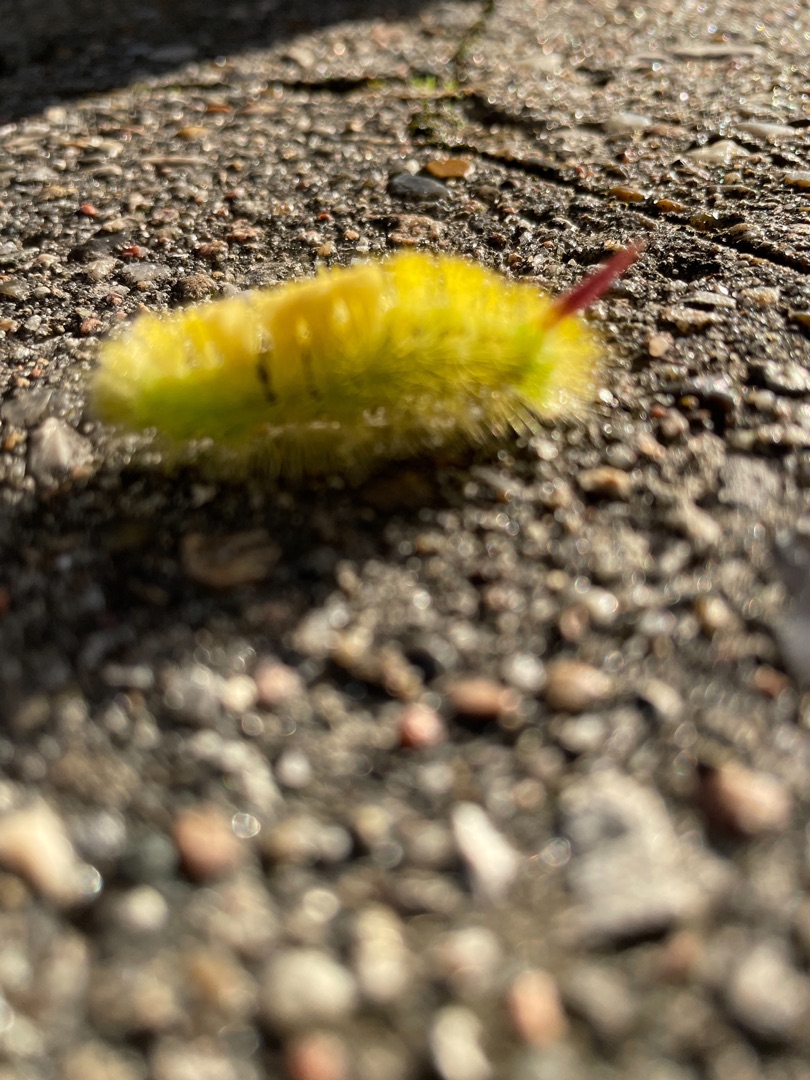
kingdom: Animalia
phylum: Arthropoda
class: Insecta
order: Lepidoptera
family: Erebidae
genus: Calliteara
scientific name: Calliteara pudibunda
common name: Bøgenonne
